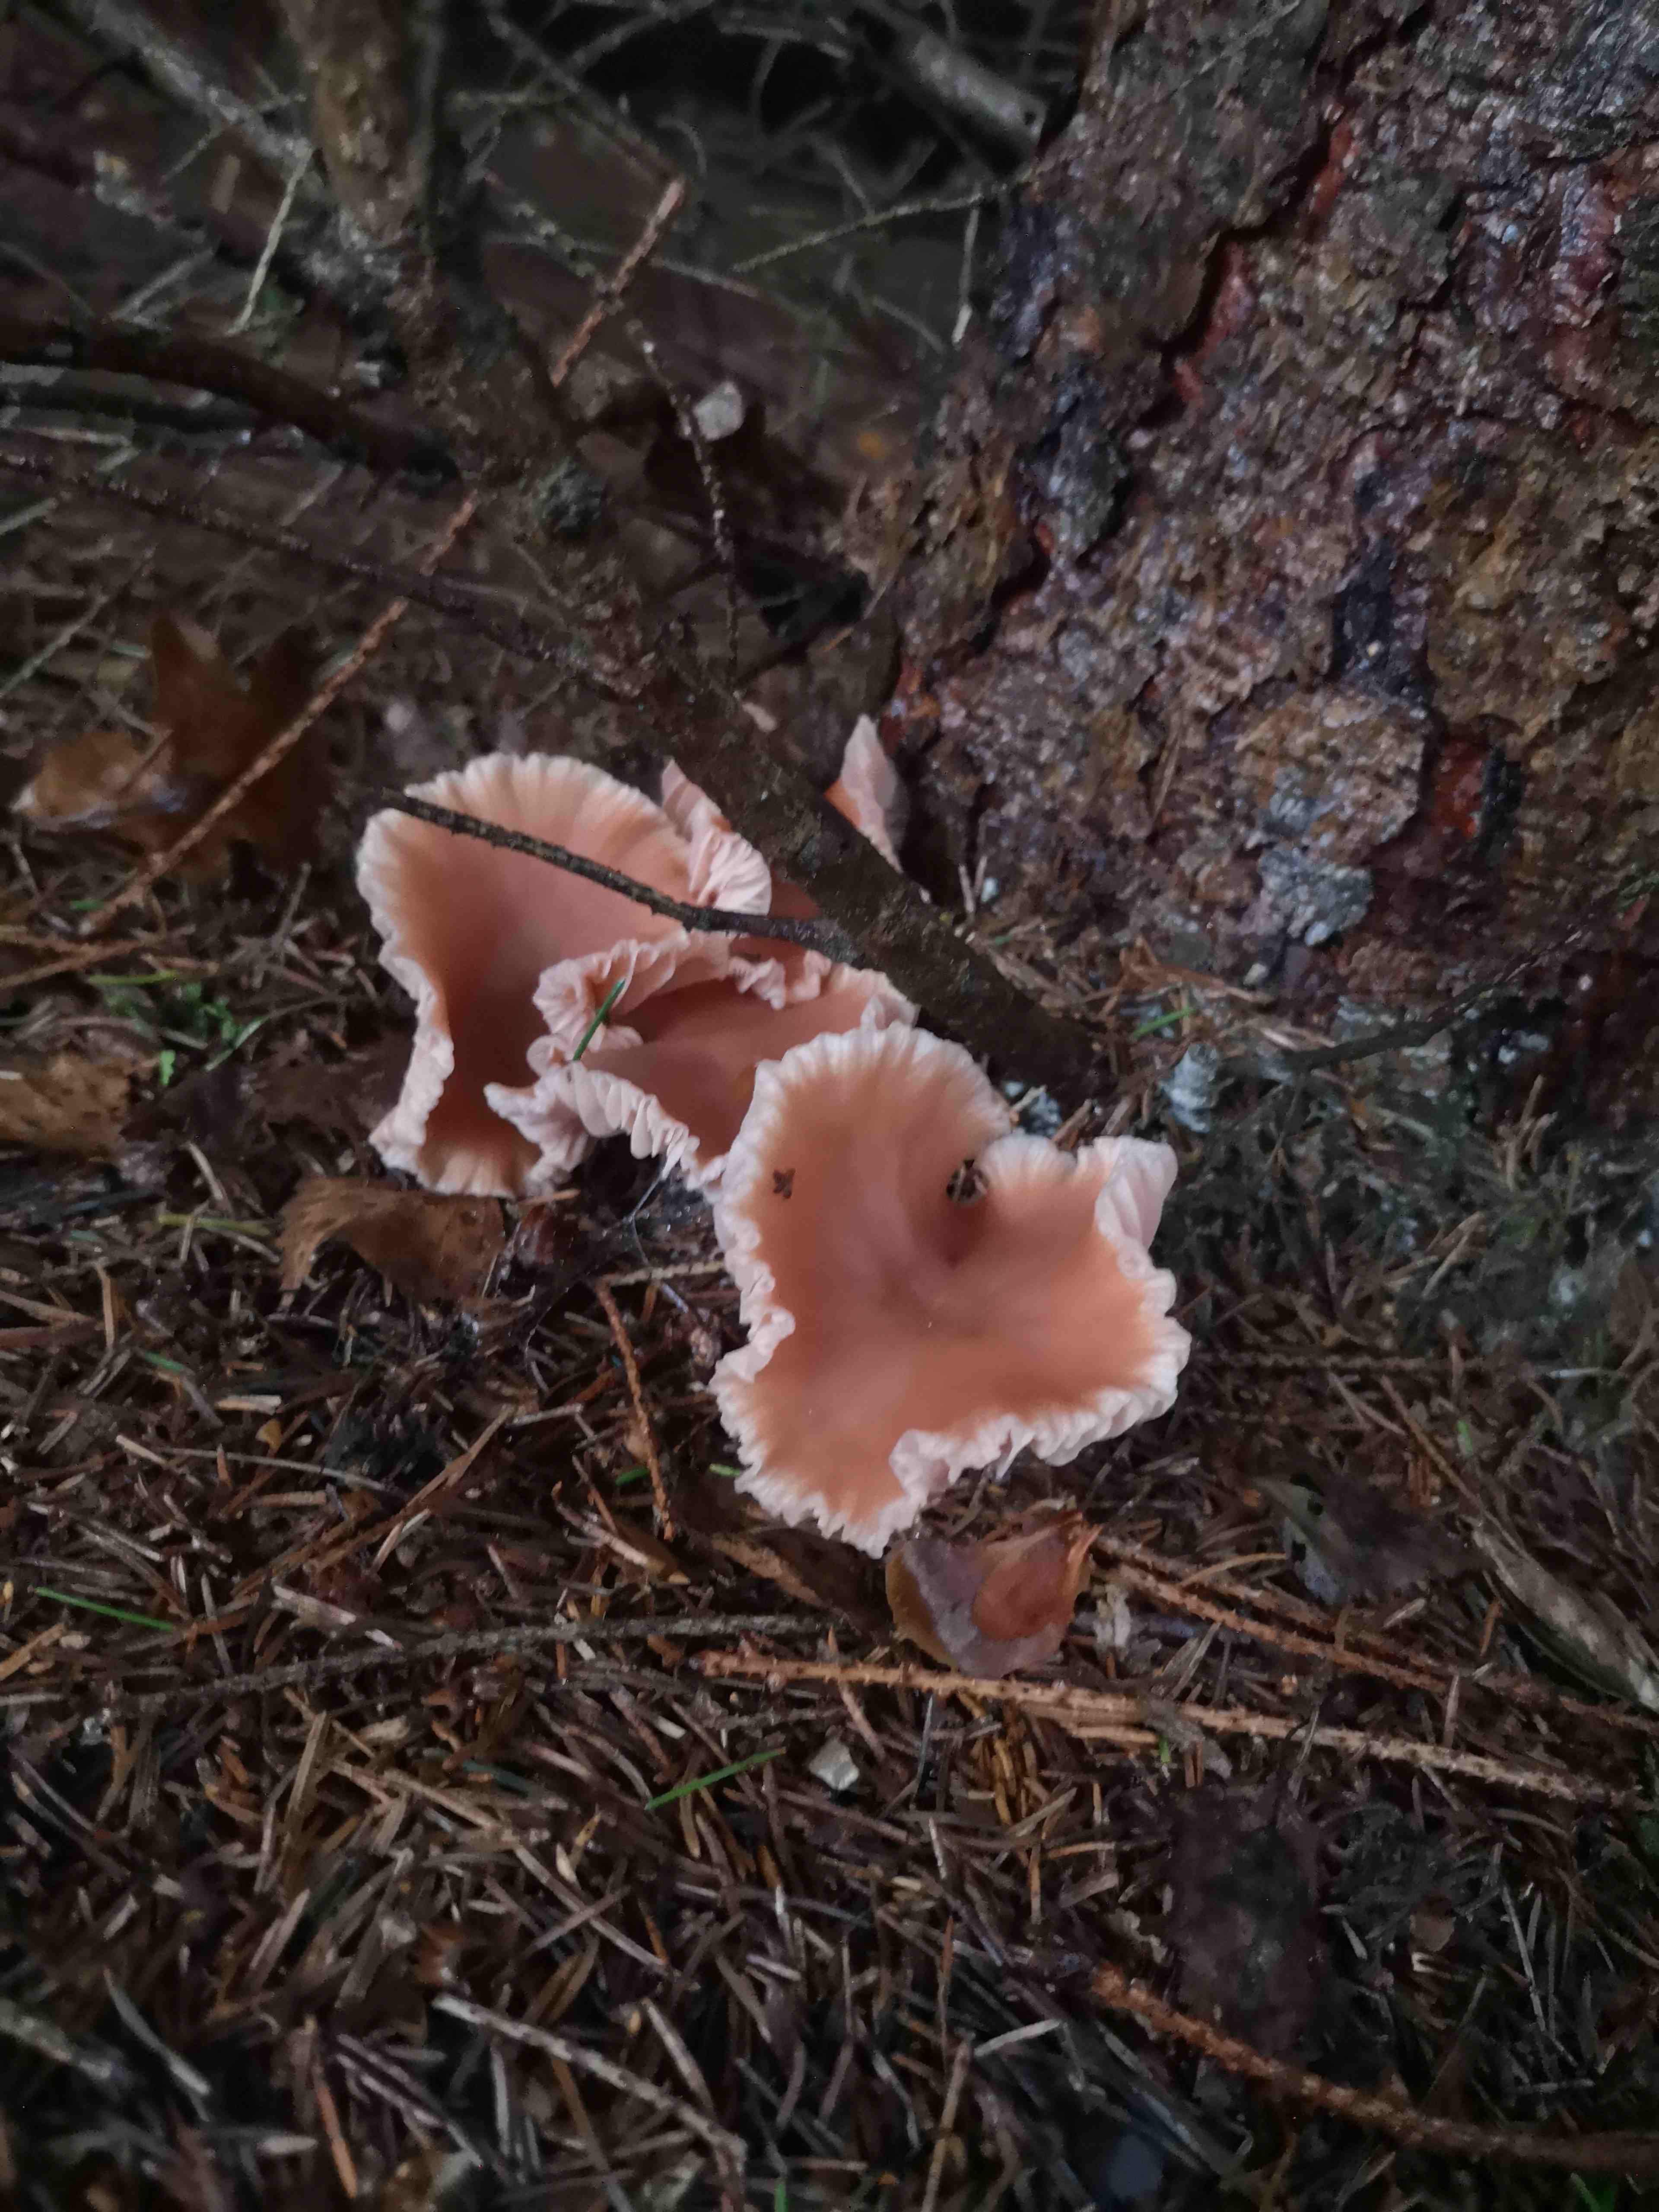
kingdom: Fungi
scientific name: Fungi
